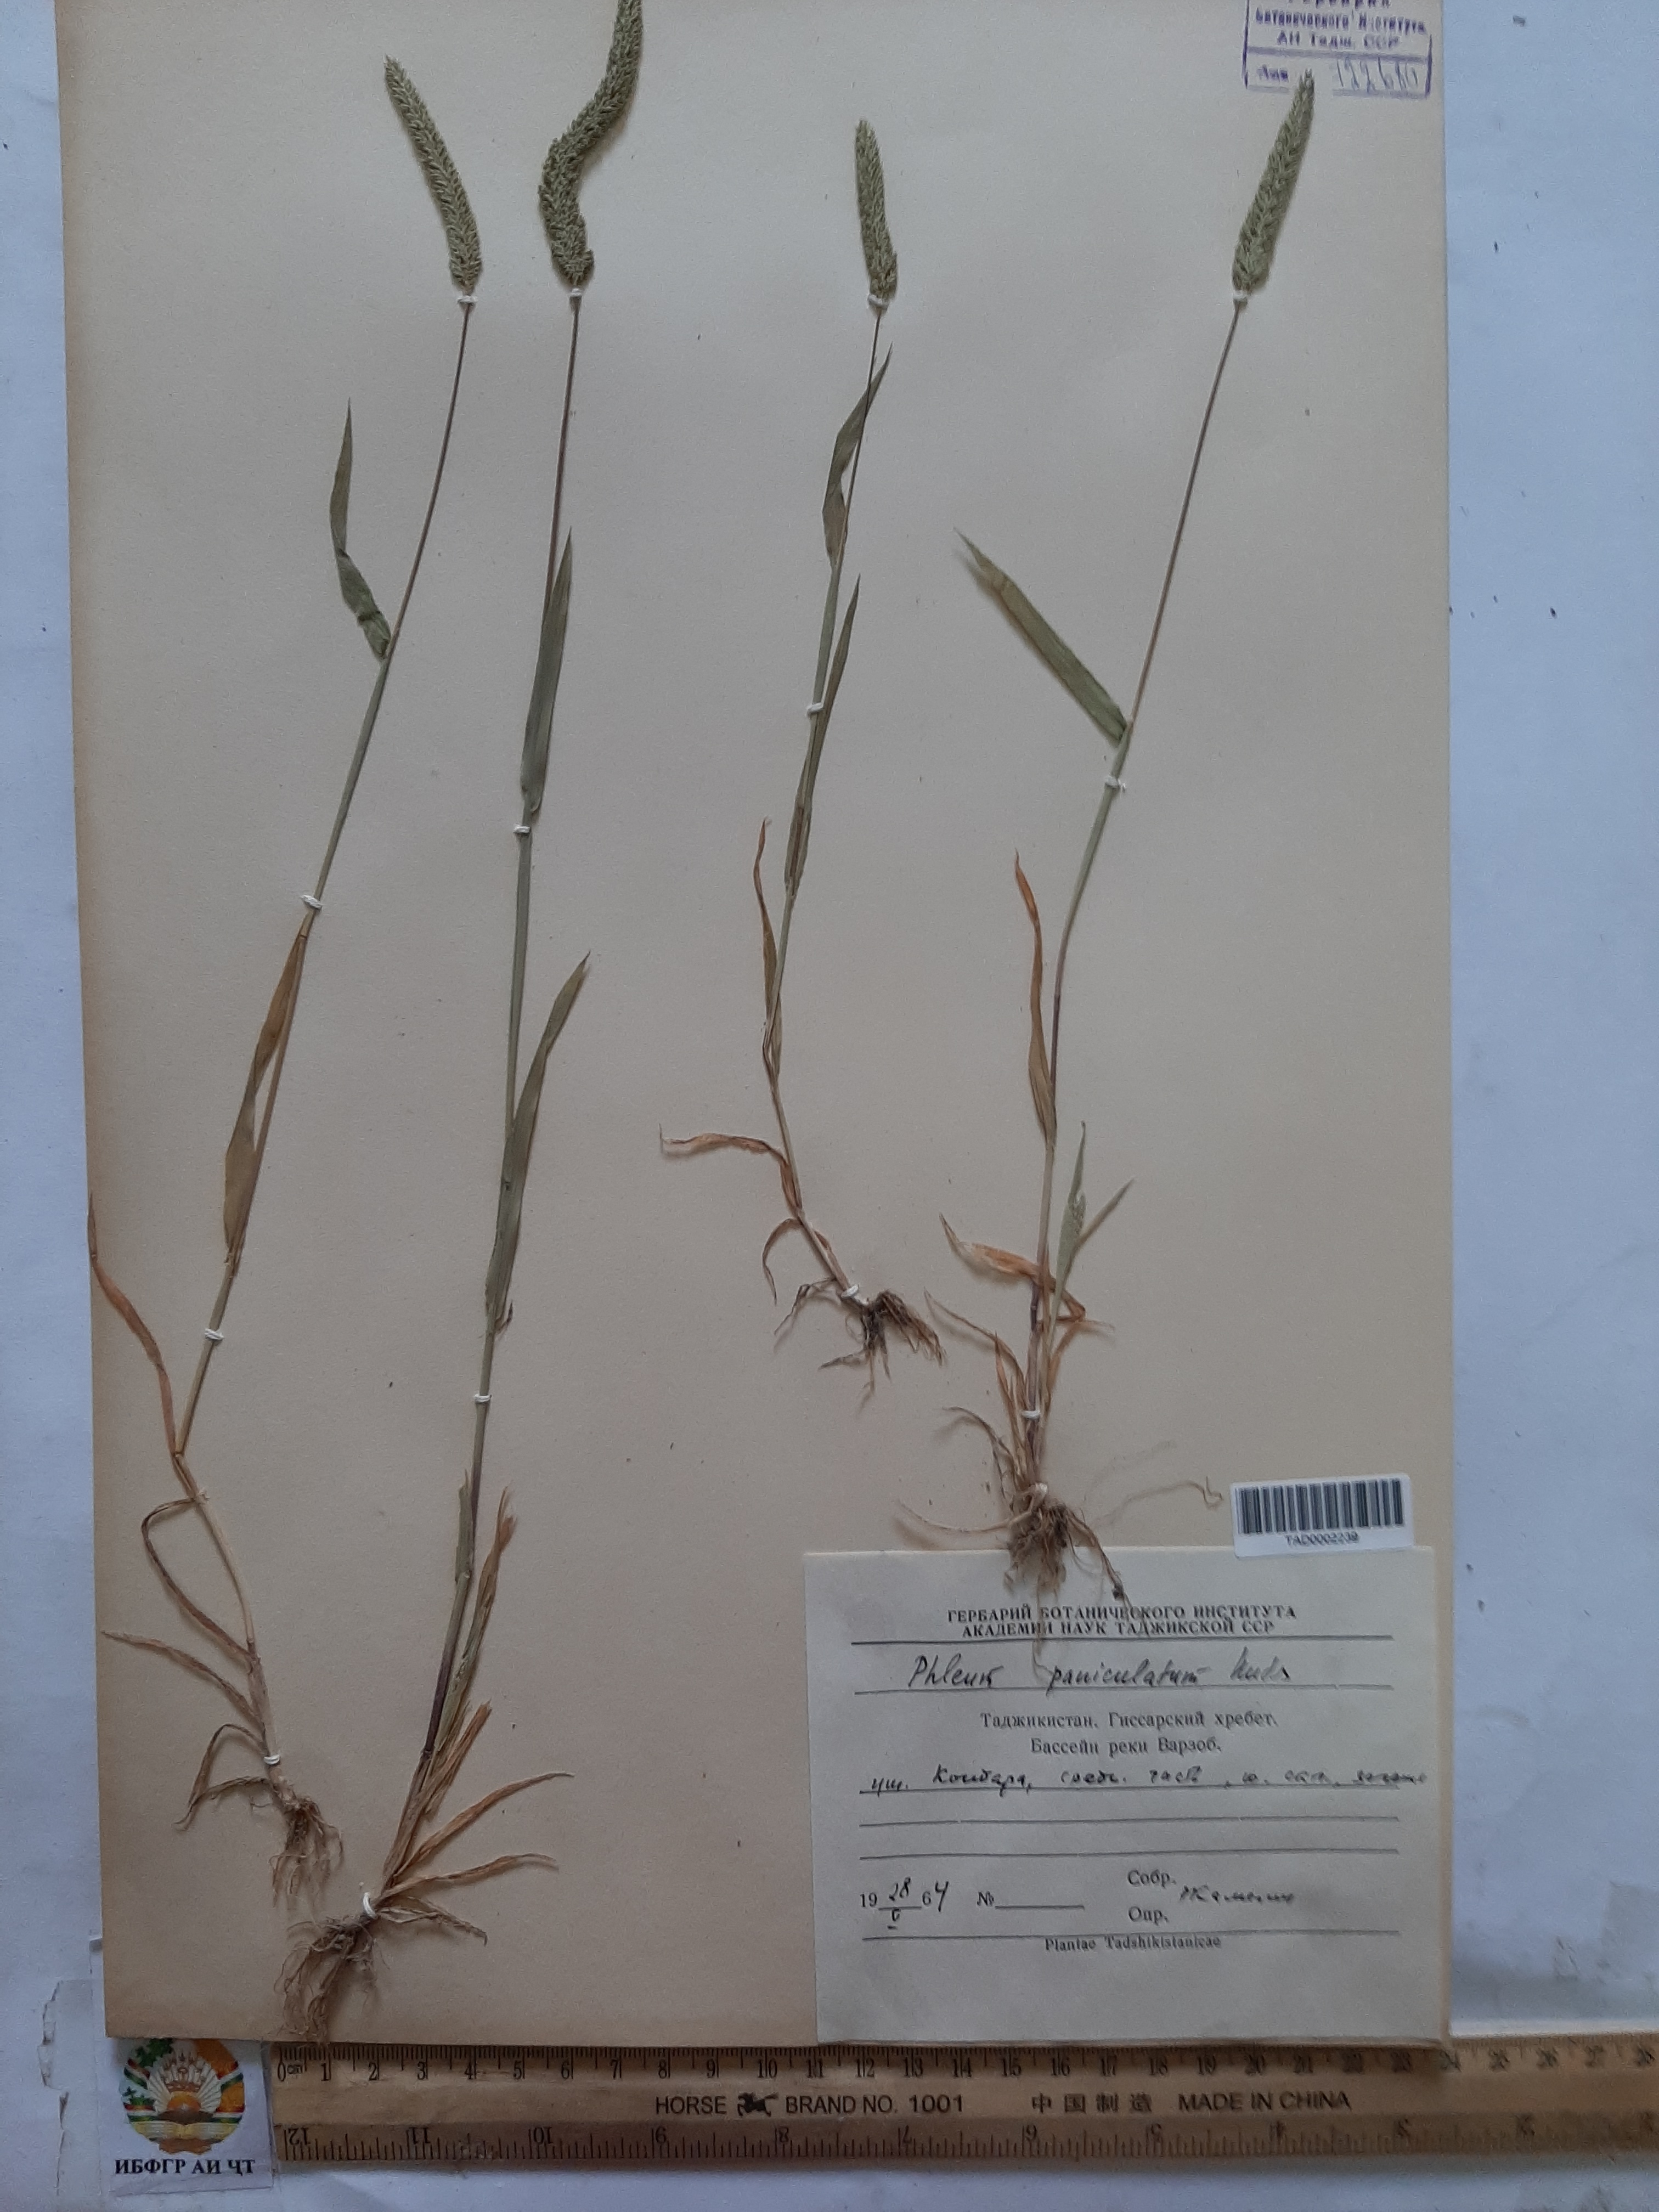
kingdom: Plantae
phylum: Tracheophyta
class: Liliopsida
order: Poales
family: Poaceae
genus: Phleum
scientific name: Phleum paniculatum
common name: British timothy
